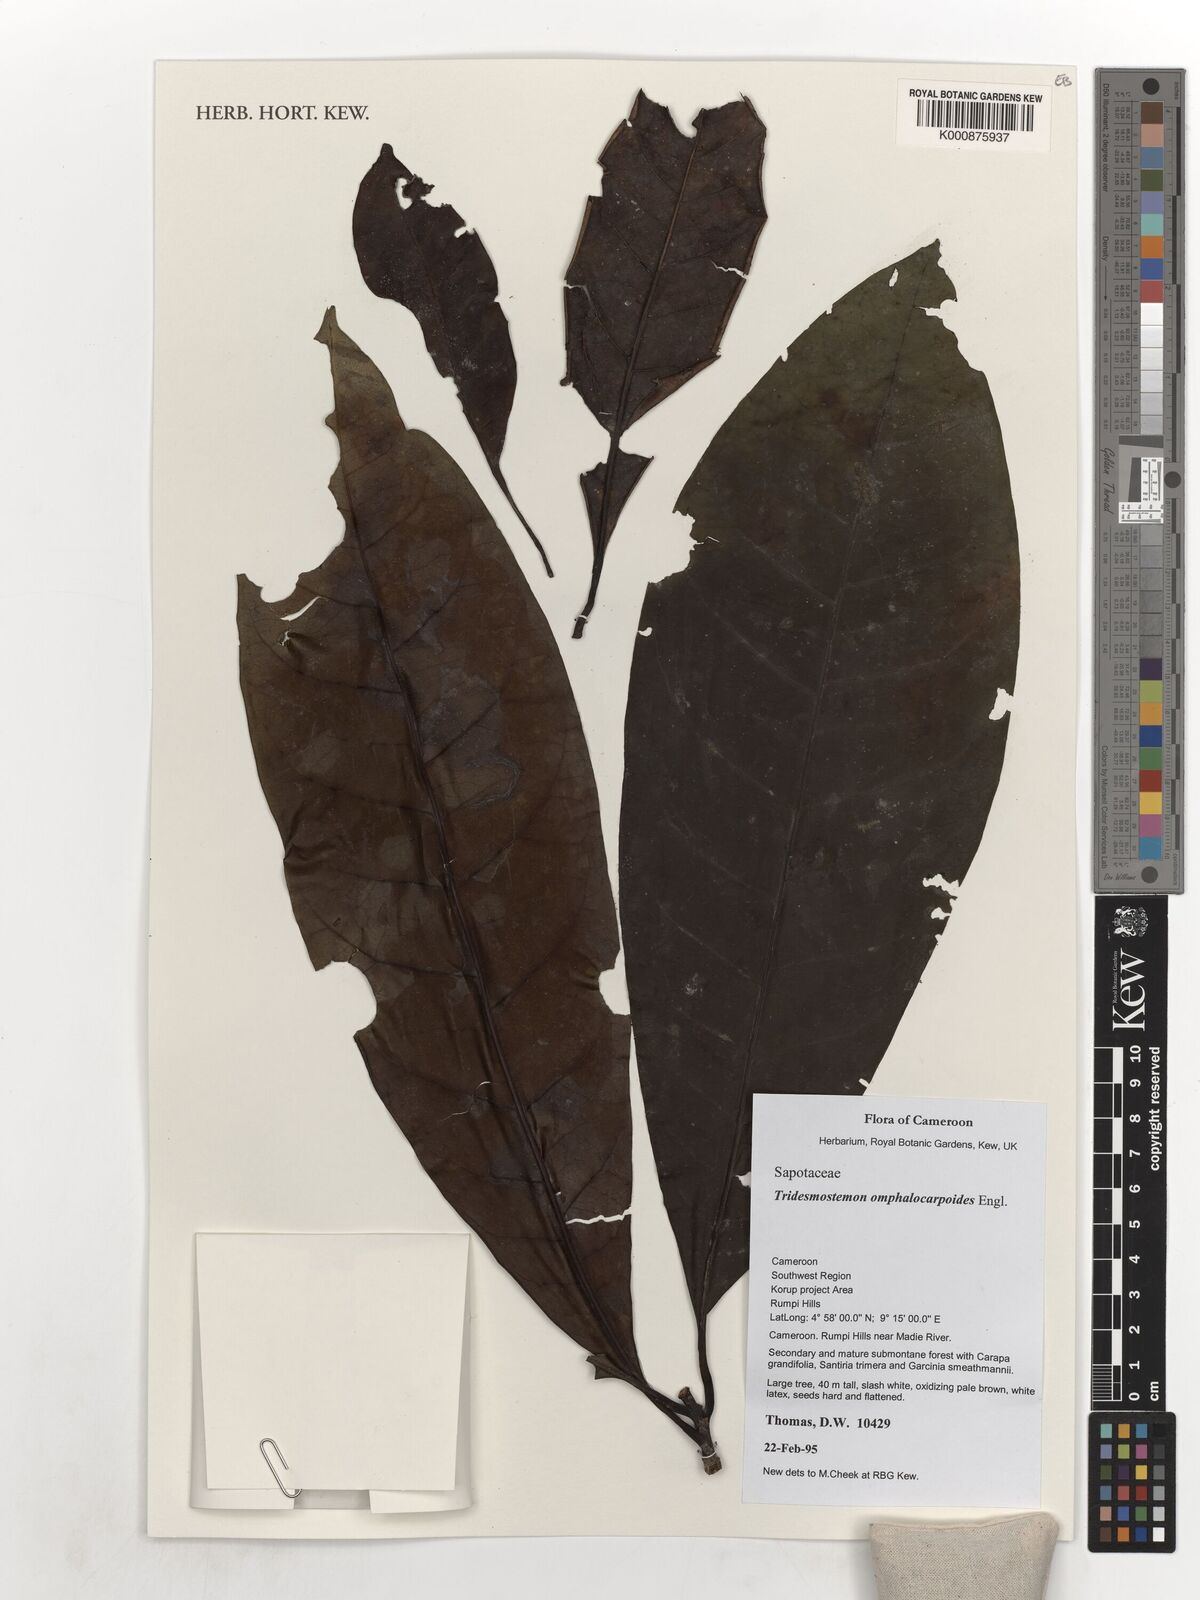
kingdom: Plantae
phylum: Tracheophyta
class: Magnoliopsida
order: Ericales
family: Sapotaceae
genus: Tridesmostemon
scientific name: Tridesmostemon omphalocarpoides
